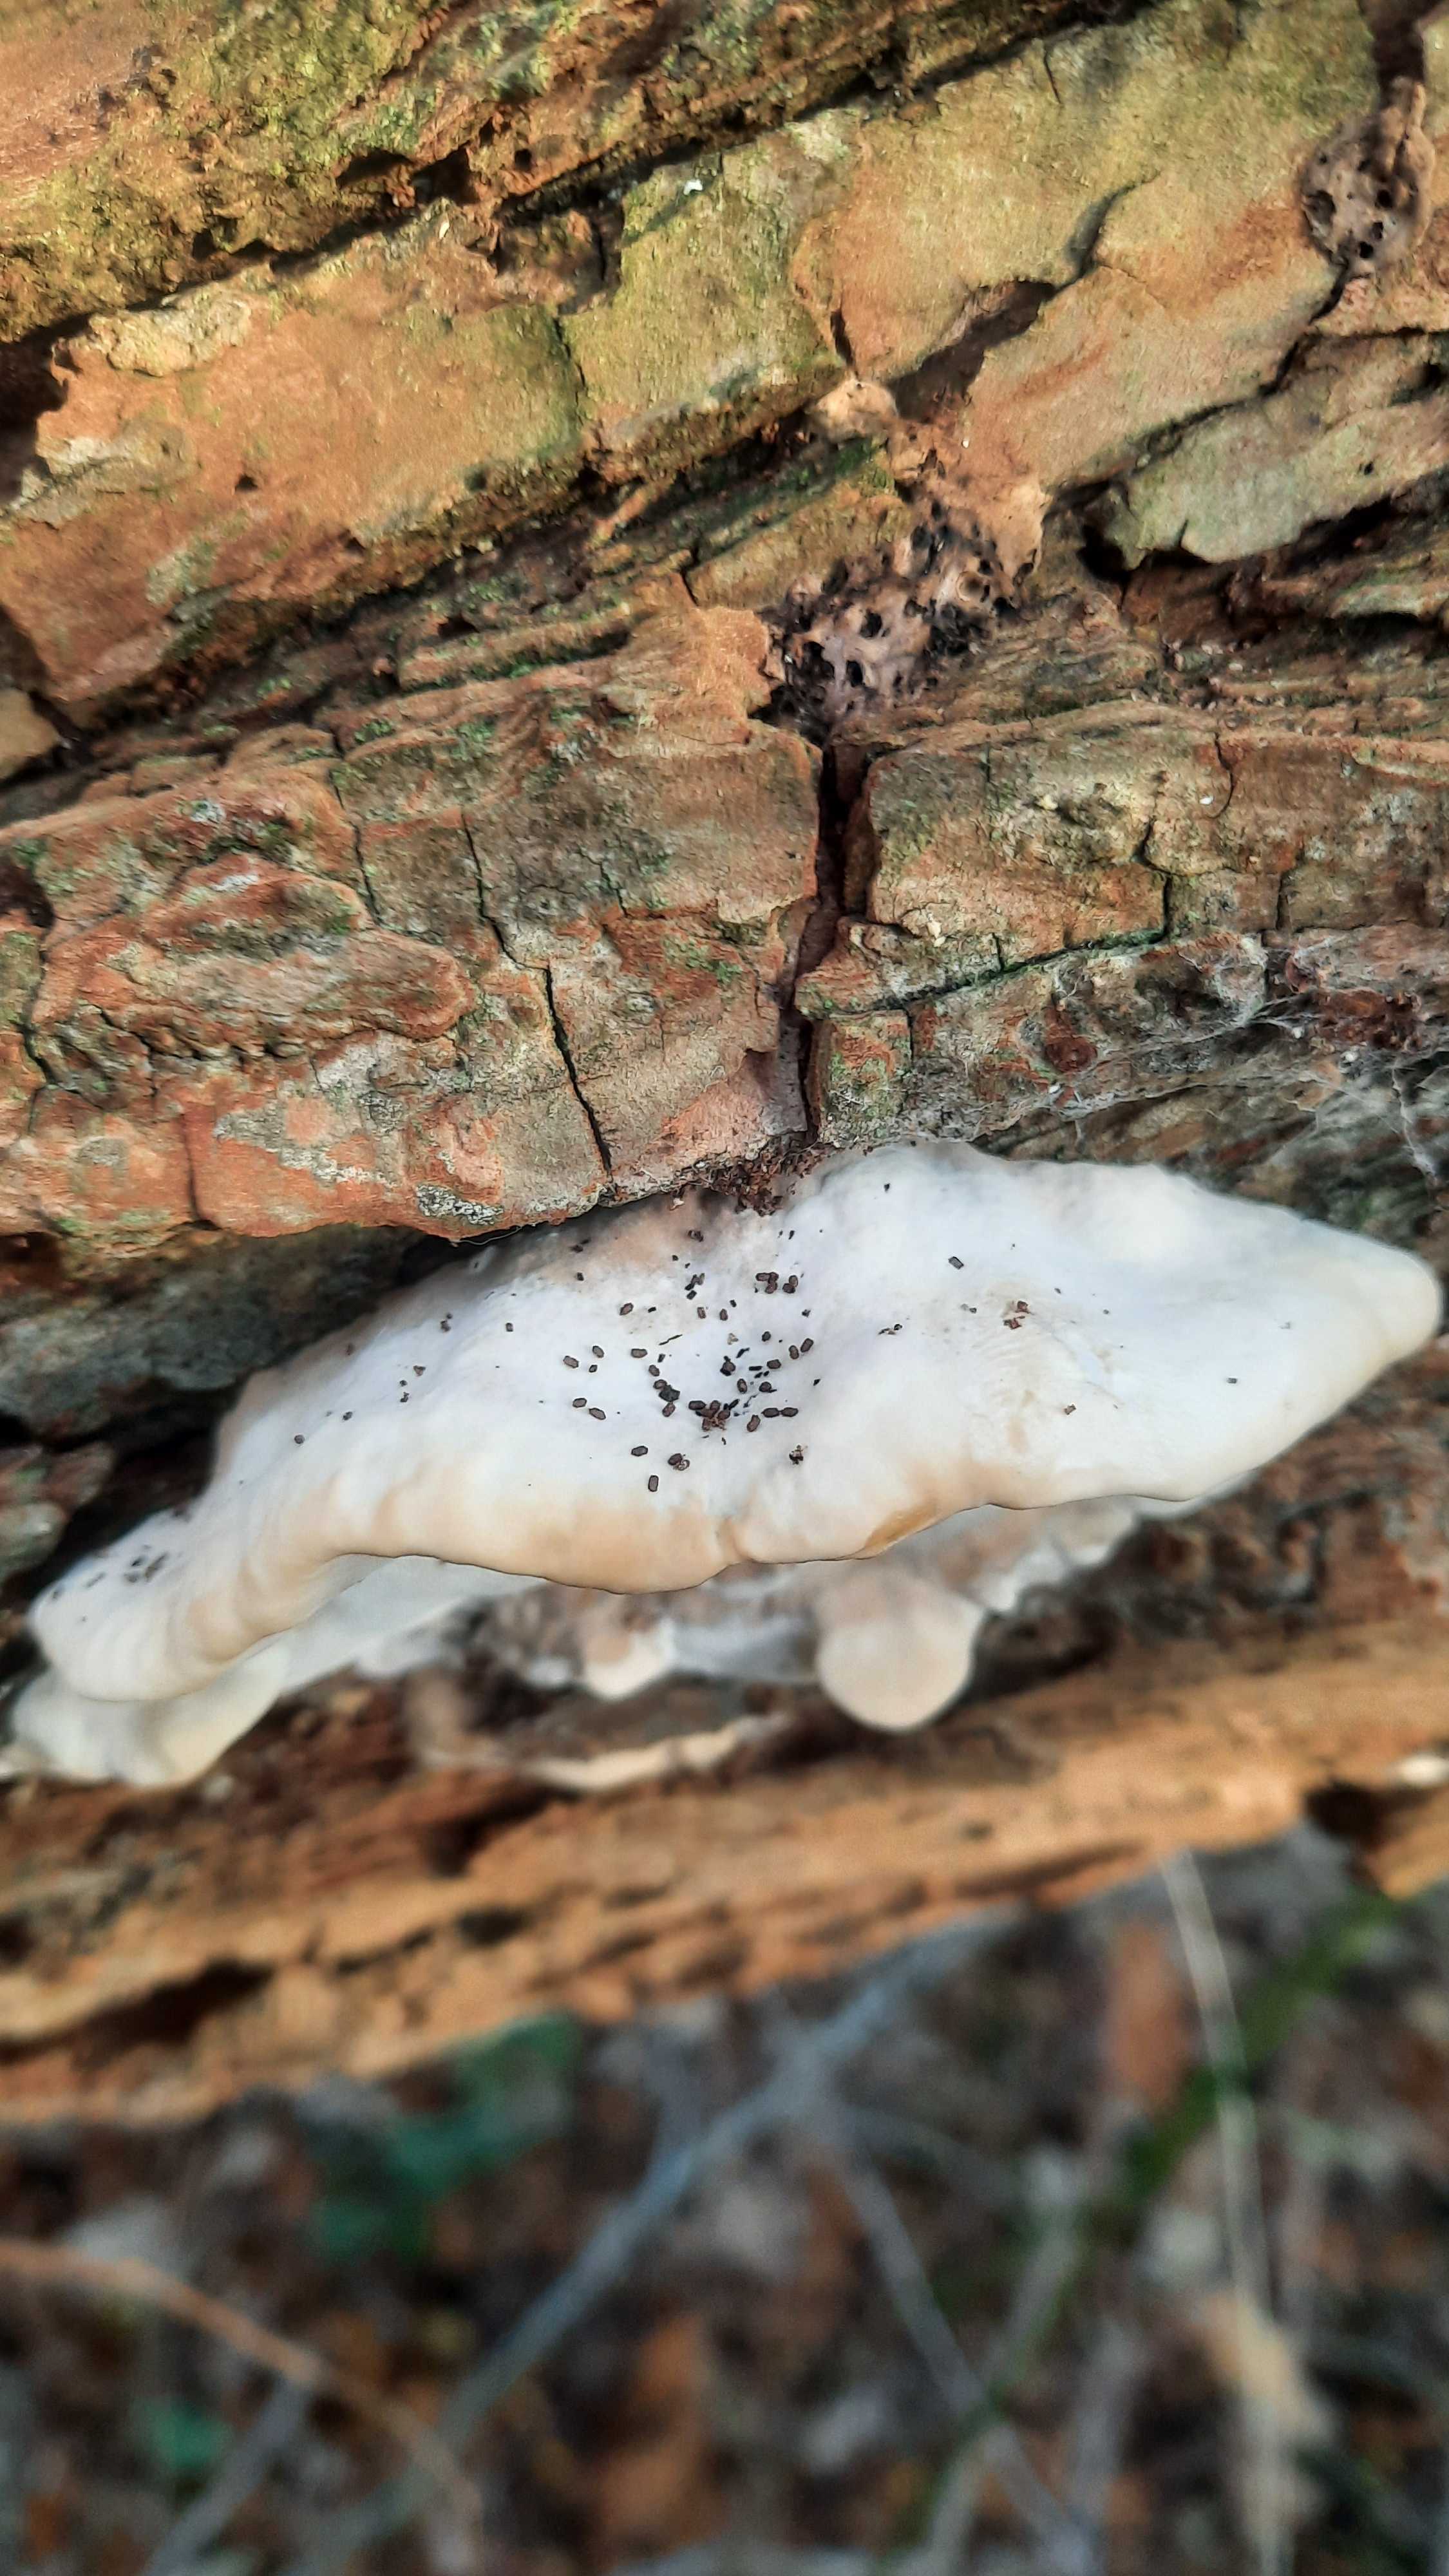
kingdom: Fungi
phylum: Basidiomycota
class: Agaricomycetes
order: Polyporales
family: Phanerochaetaceae
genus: Bjerkandera
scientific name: Bjerkandera fumosa
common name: grågul sodporesvamp
